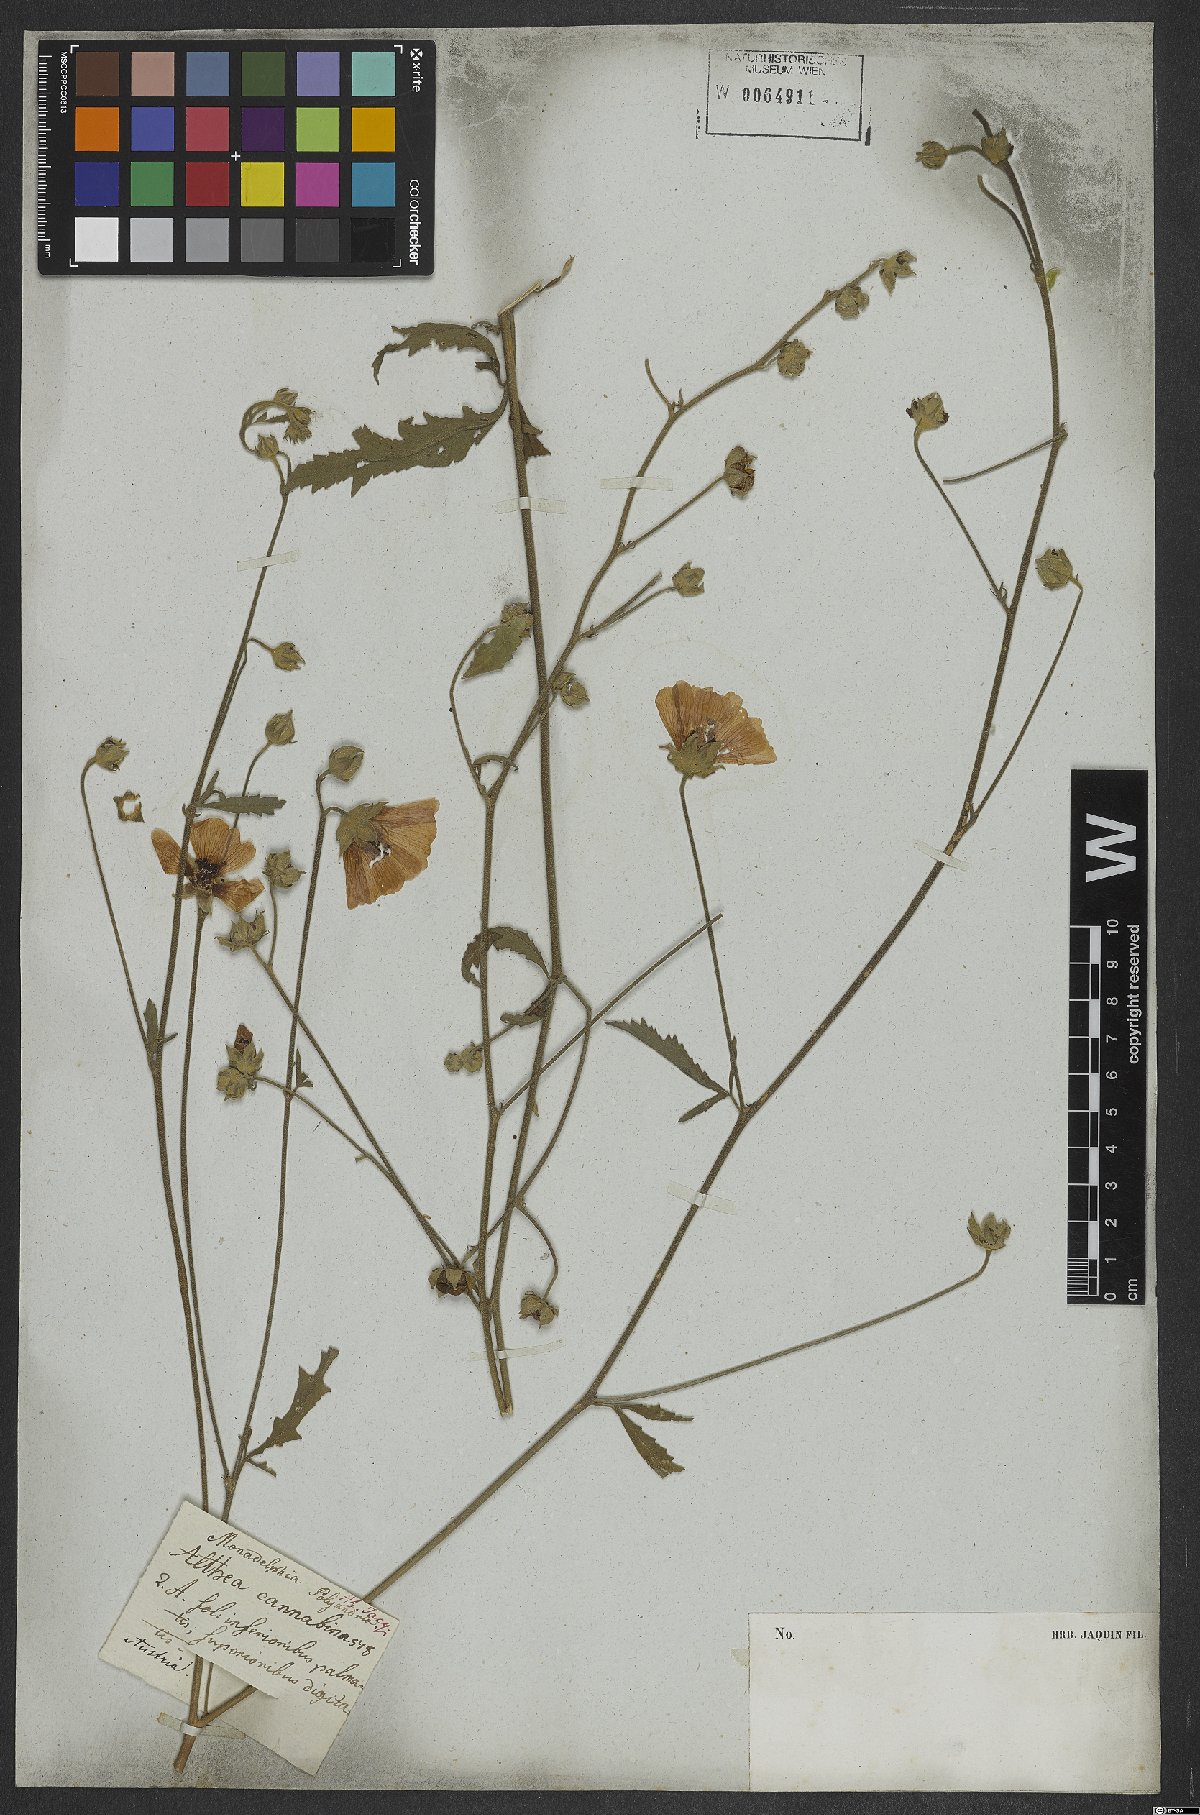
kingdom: Plantae
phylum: Tracheophyta
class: Magnoliopsida
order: Malvales
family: Malvaceae
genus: Althaea
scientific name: Althaea cannabina
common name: Palm-leaf marshmallow
